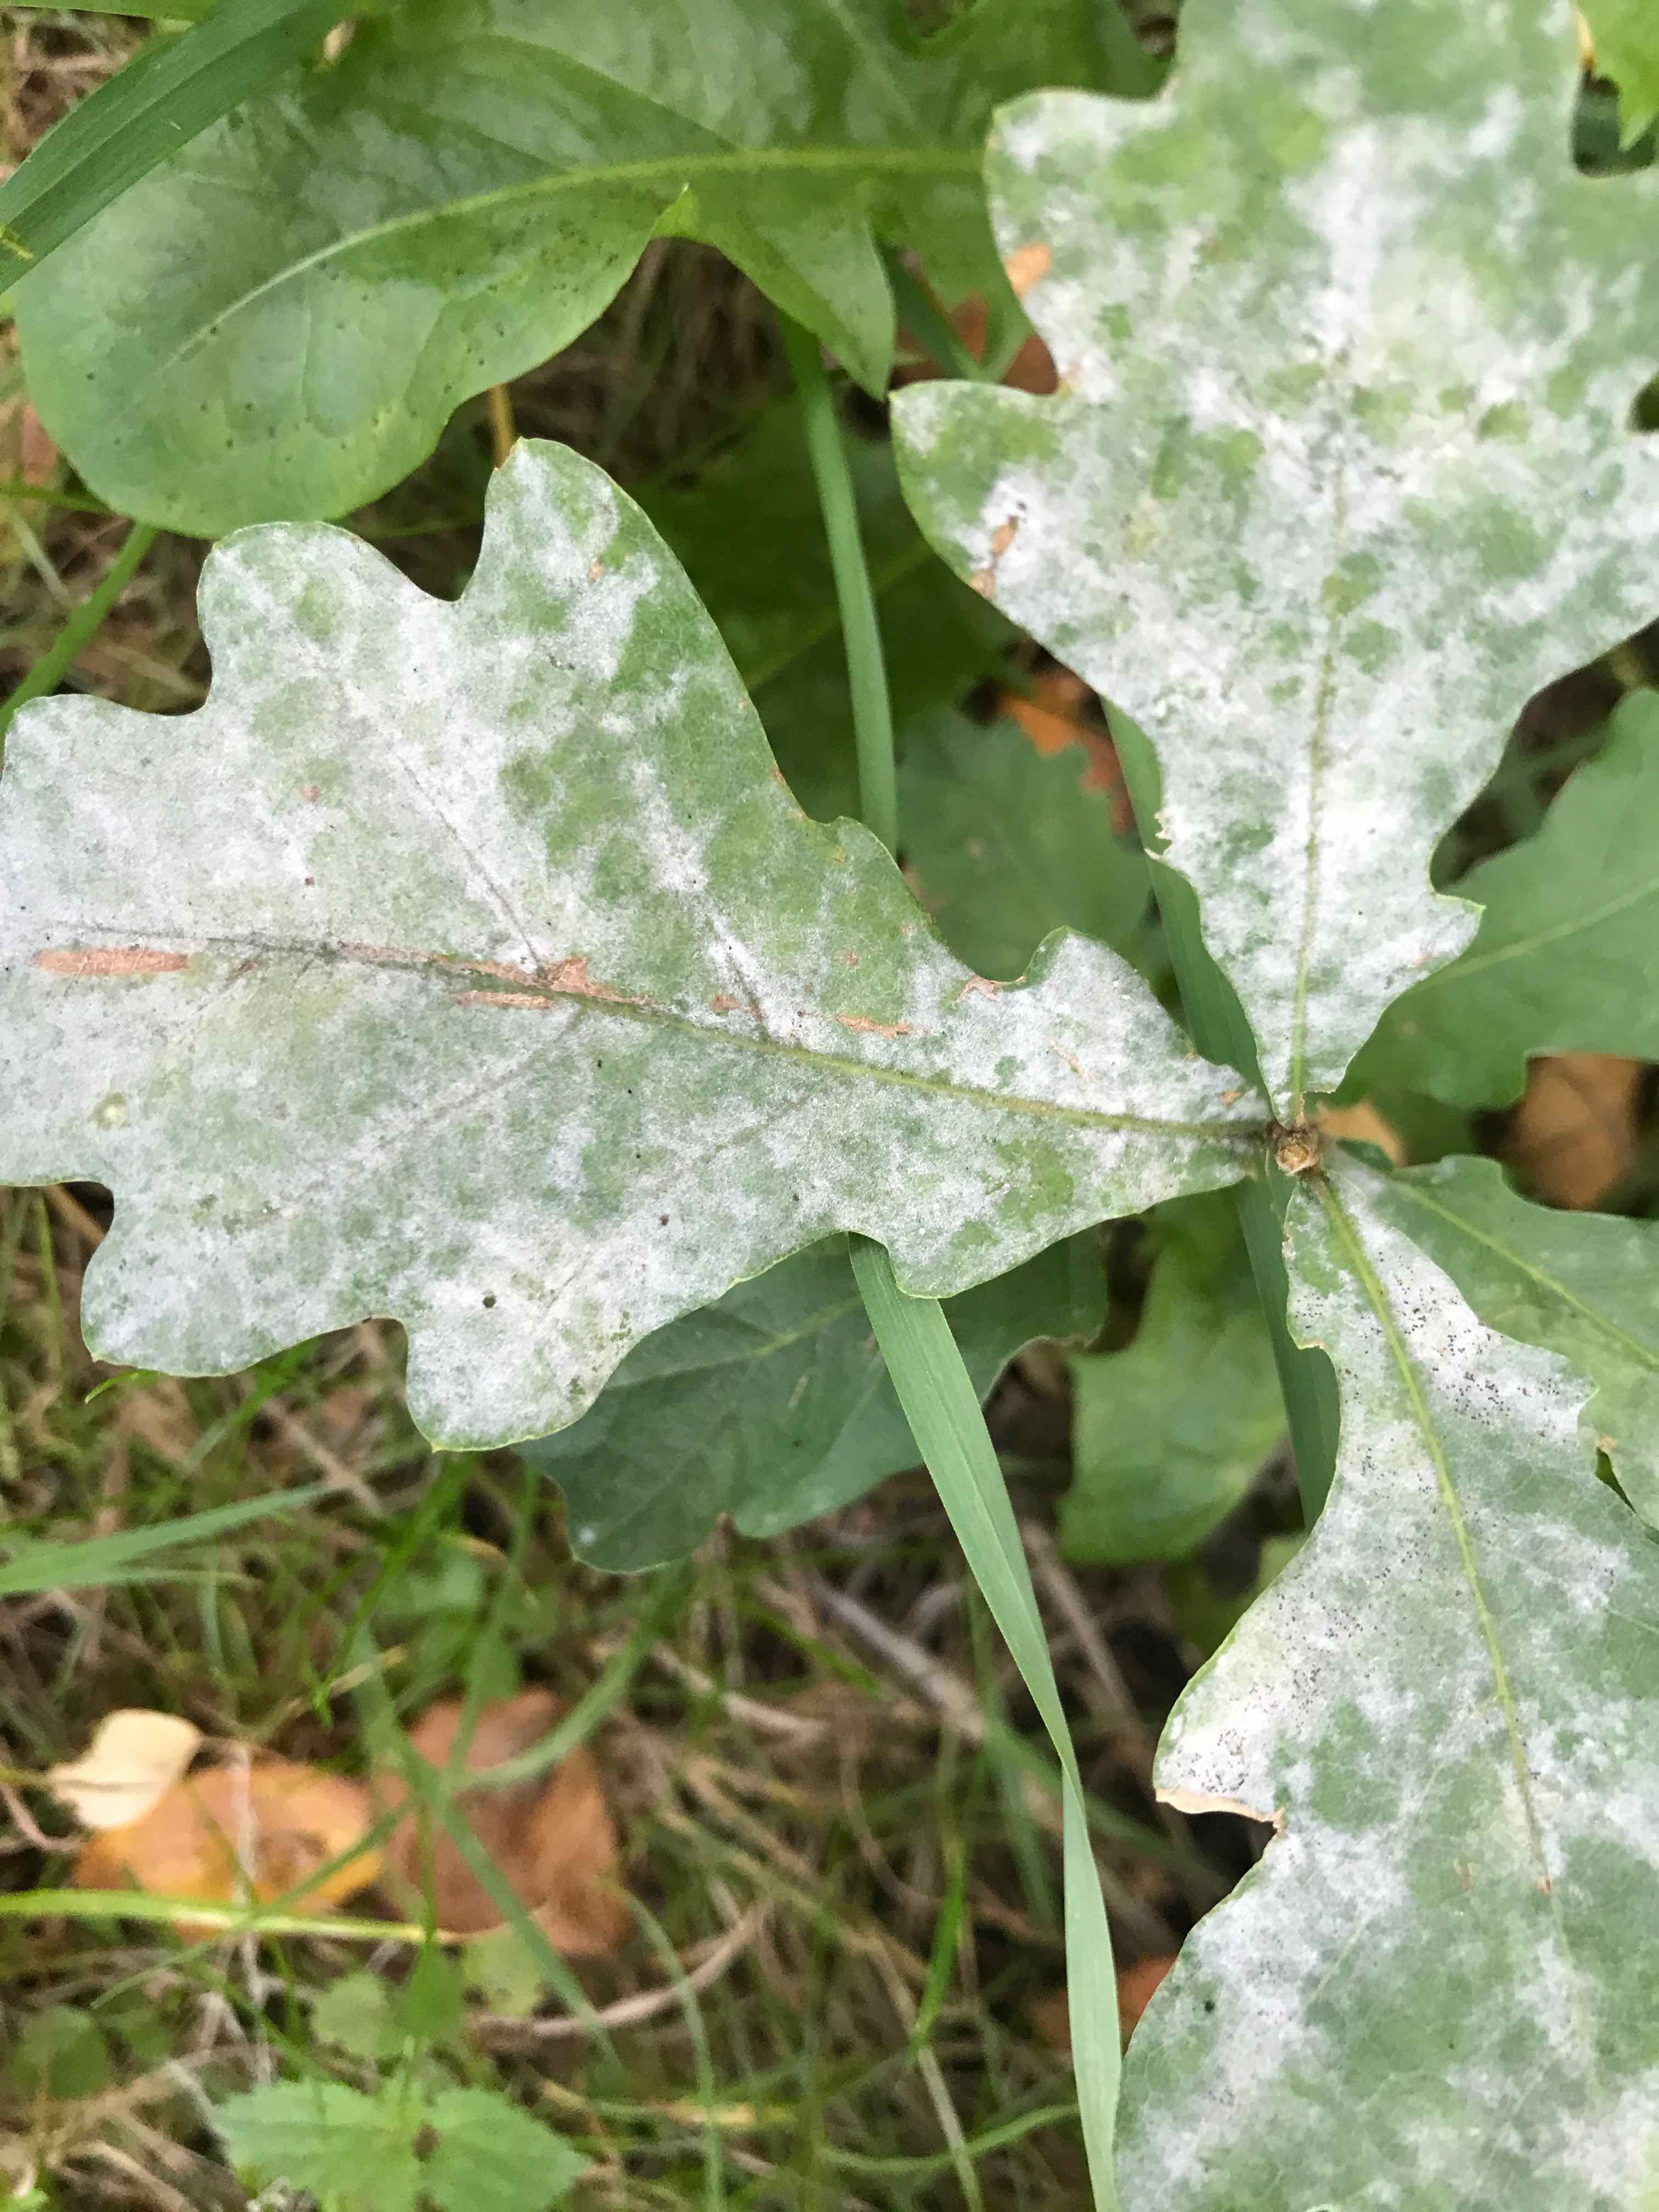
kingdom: Fungi
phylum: Ascomycota
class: Leotiomycetes
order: Helotiales
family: Erysiphaceae
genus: Erysiphe
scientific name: Erysiphe alphitoides
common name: ege-meldug
